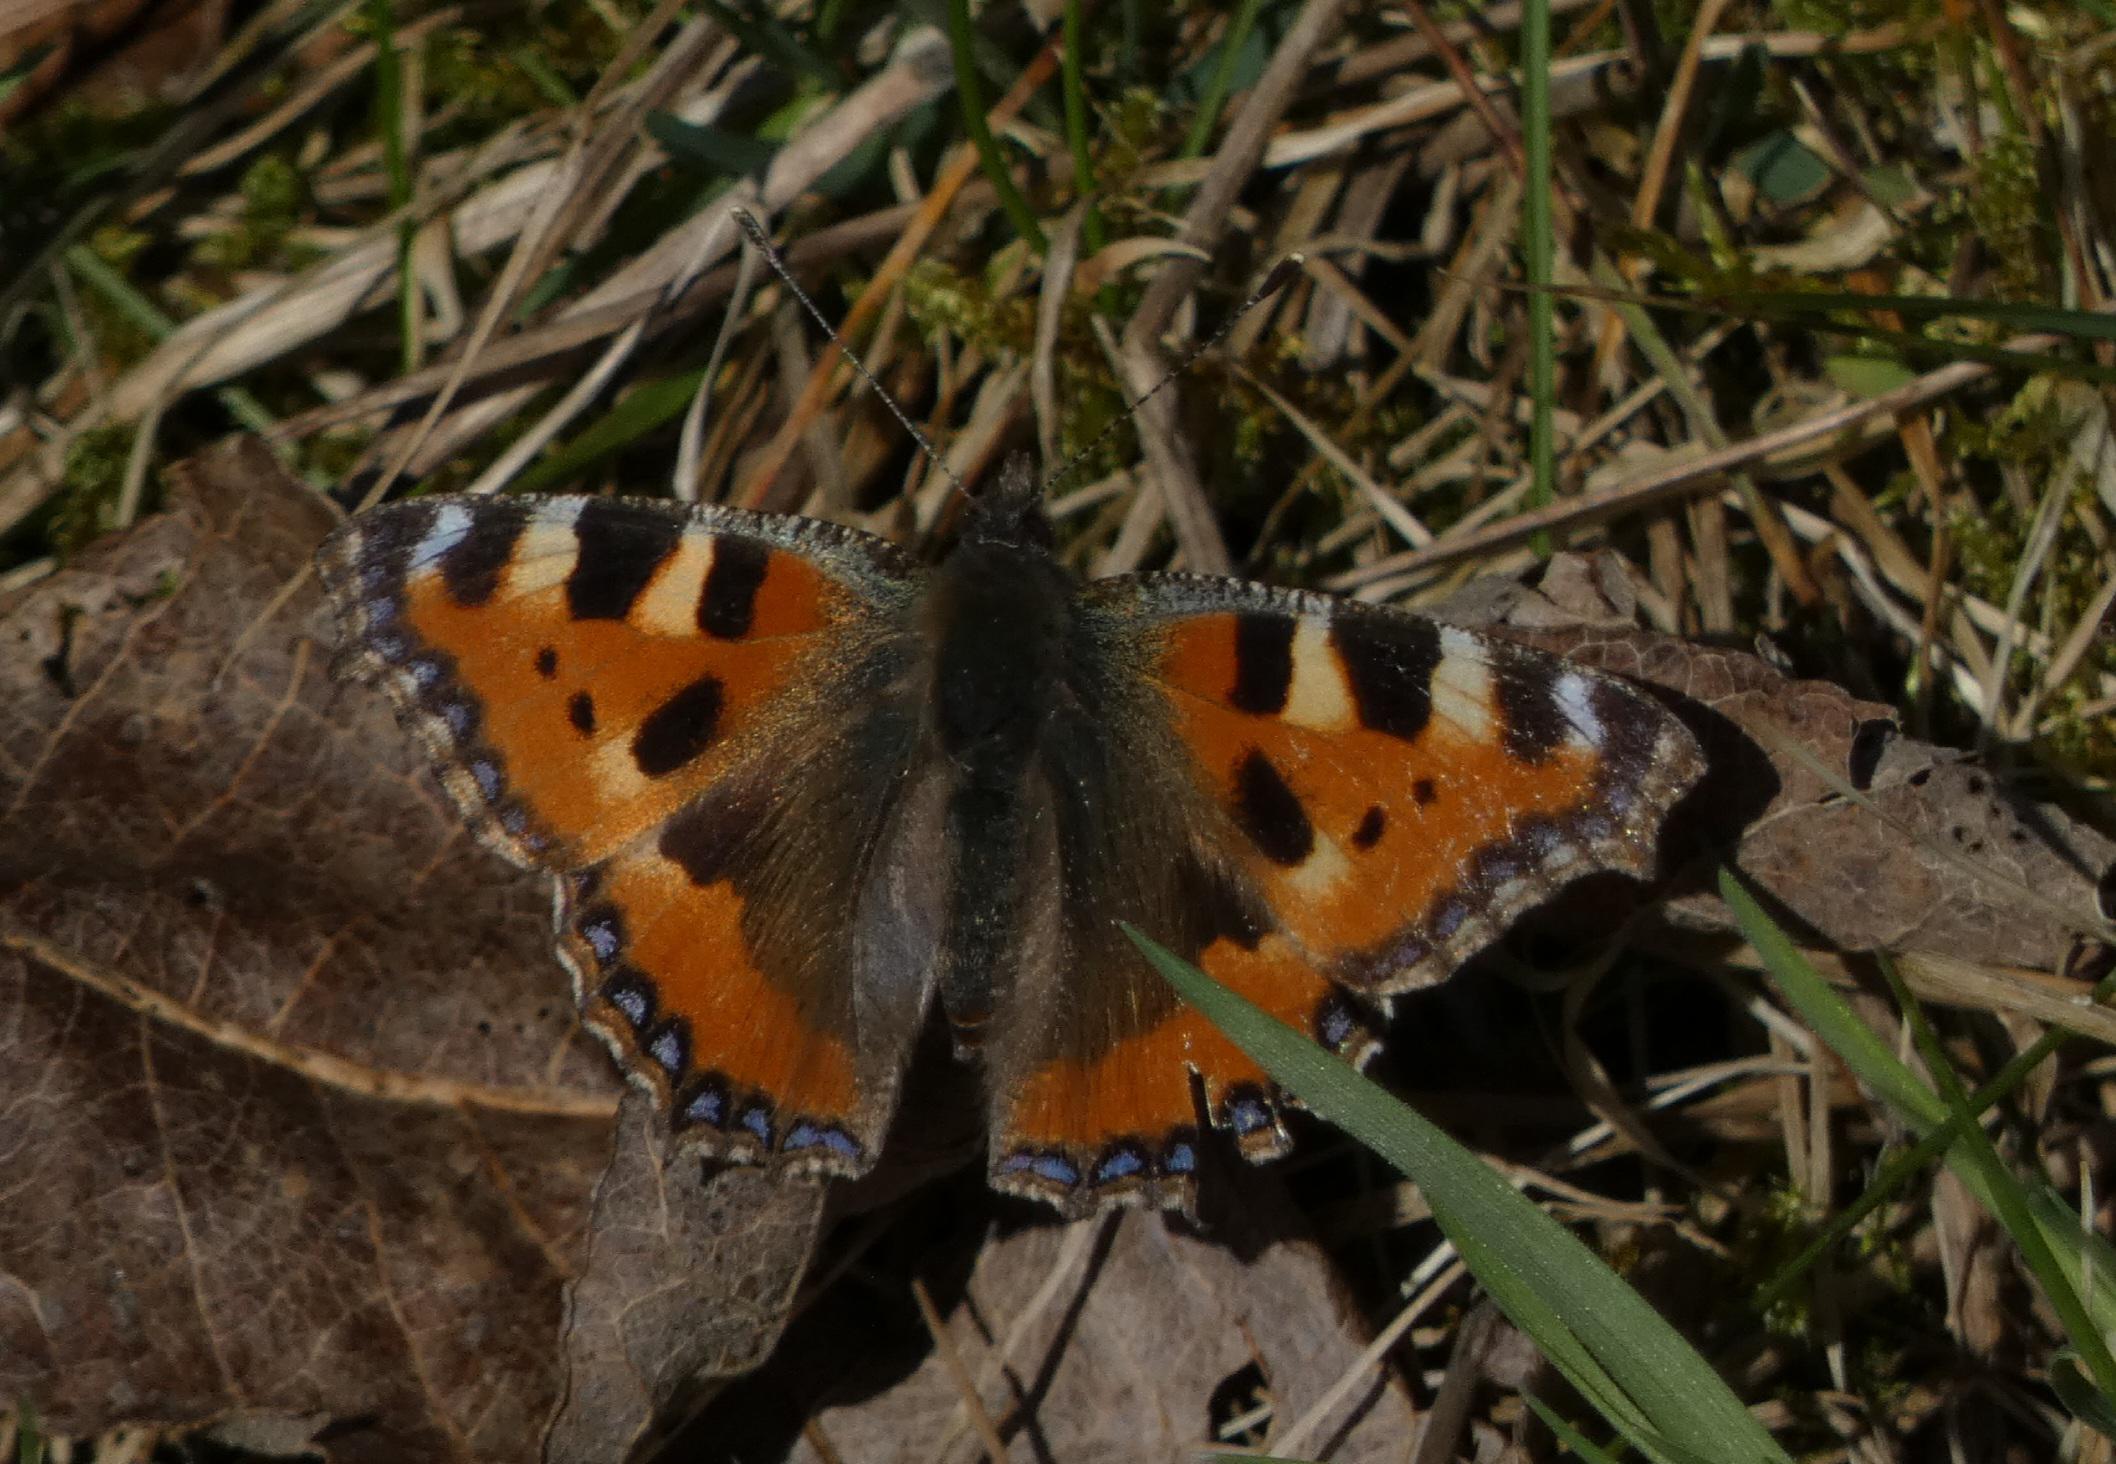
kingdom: Animalia
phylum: Arthropoda
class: Insecta
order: Lepidoptera
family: Nymphalidae
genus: Aglais
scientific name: Aglais urticae
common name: Nældens takvinge
